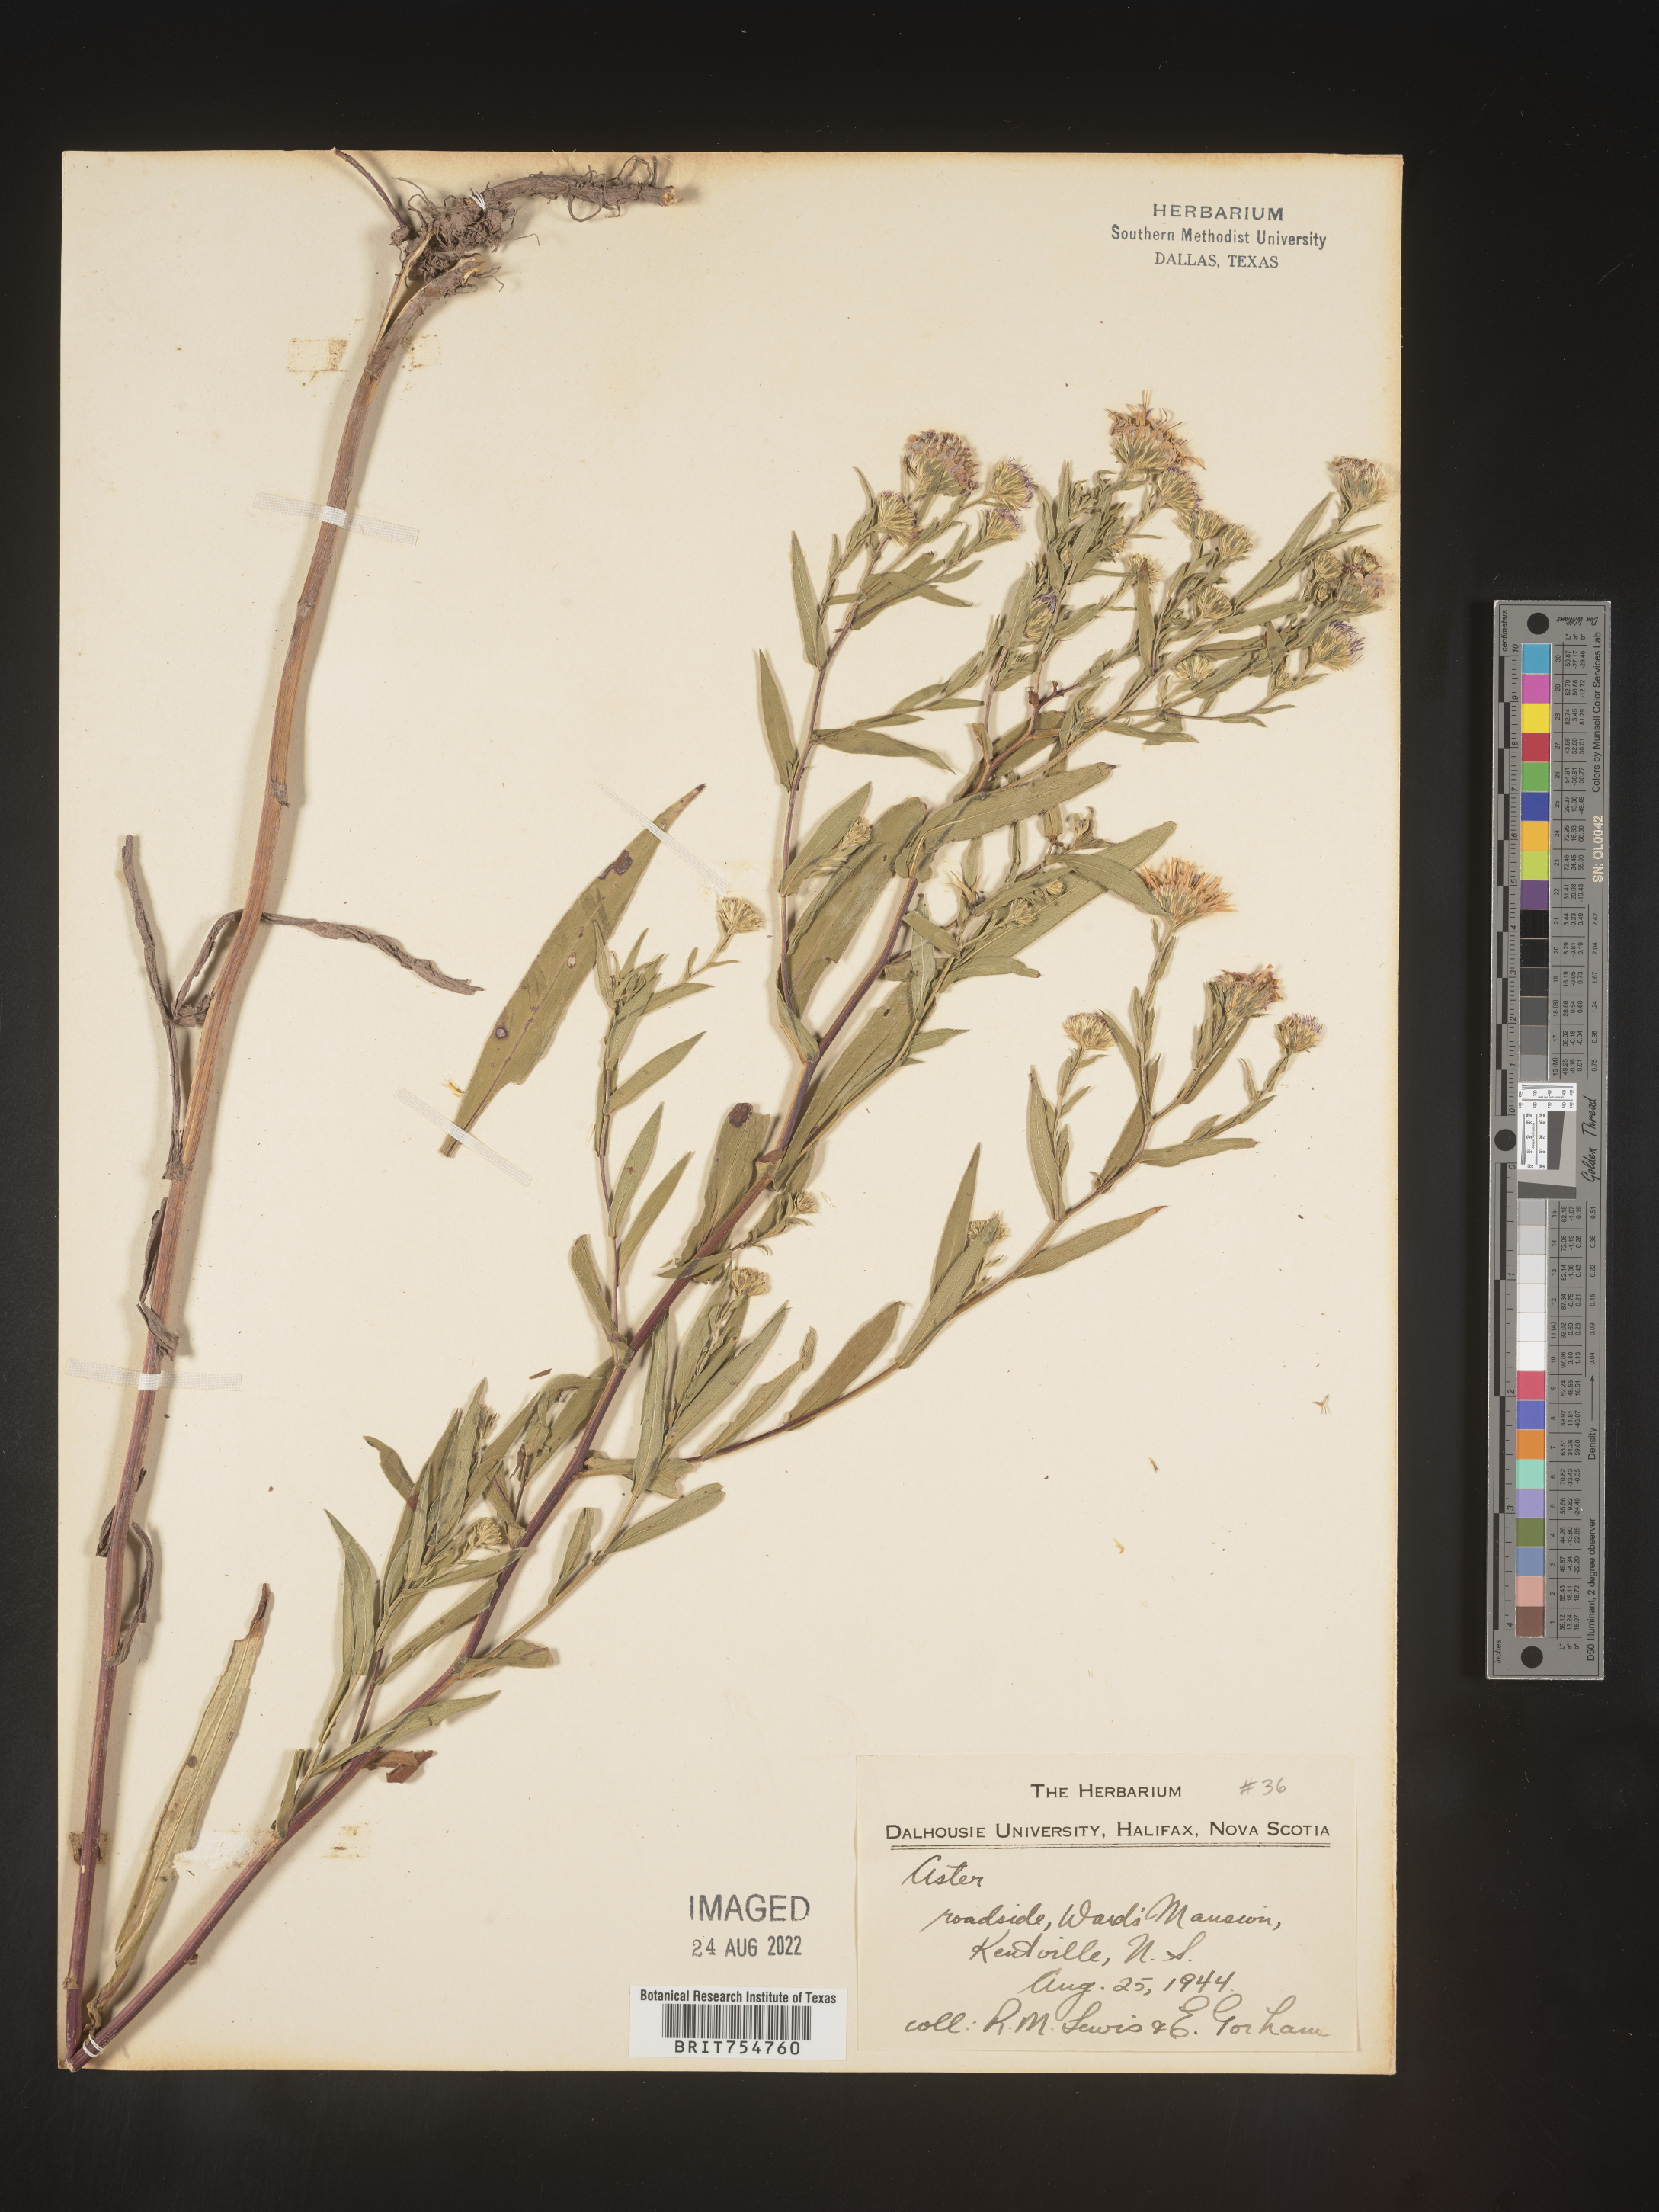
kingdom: Plantae
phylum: Tracheophyta
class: Magnoliopsida
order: Asterales
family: Asteraceae
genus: Symphyotrichum
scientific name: Symphyotrichum
